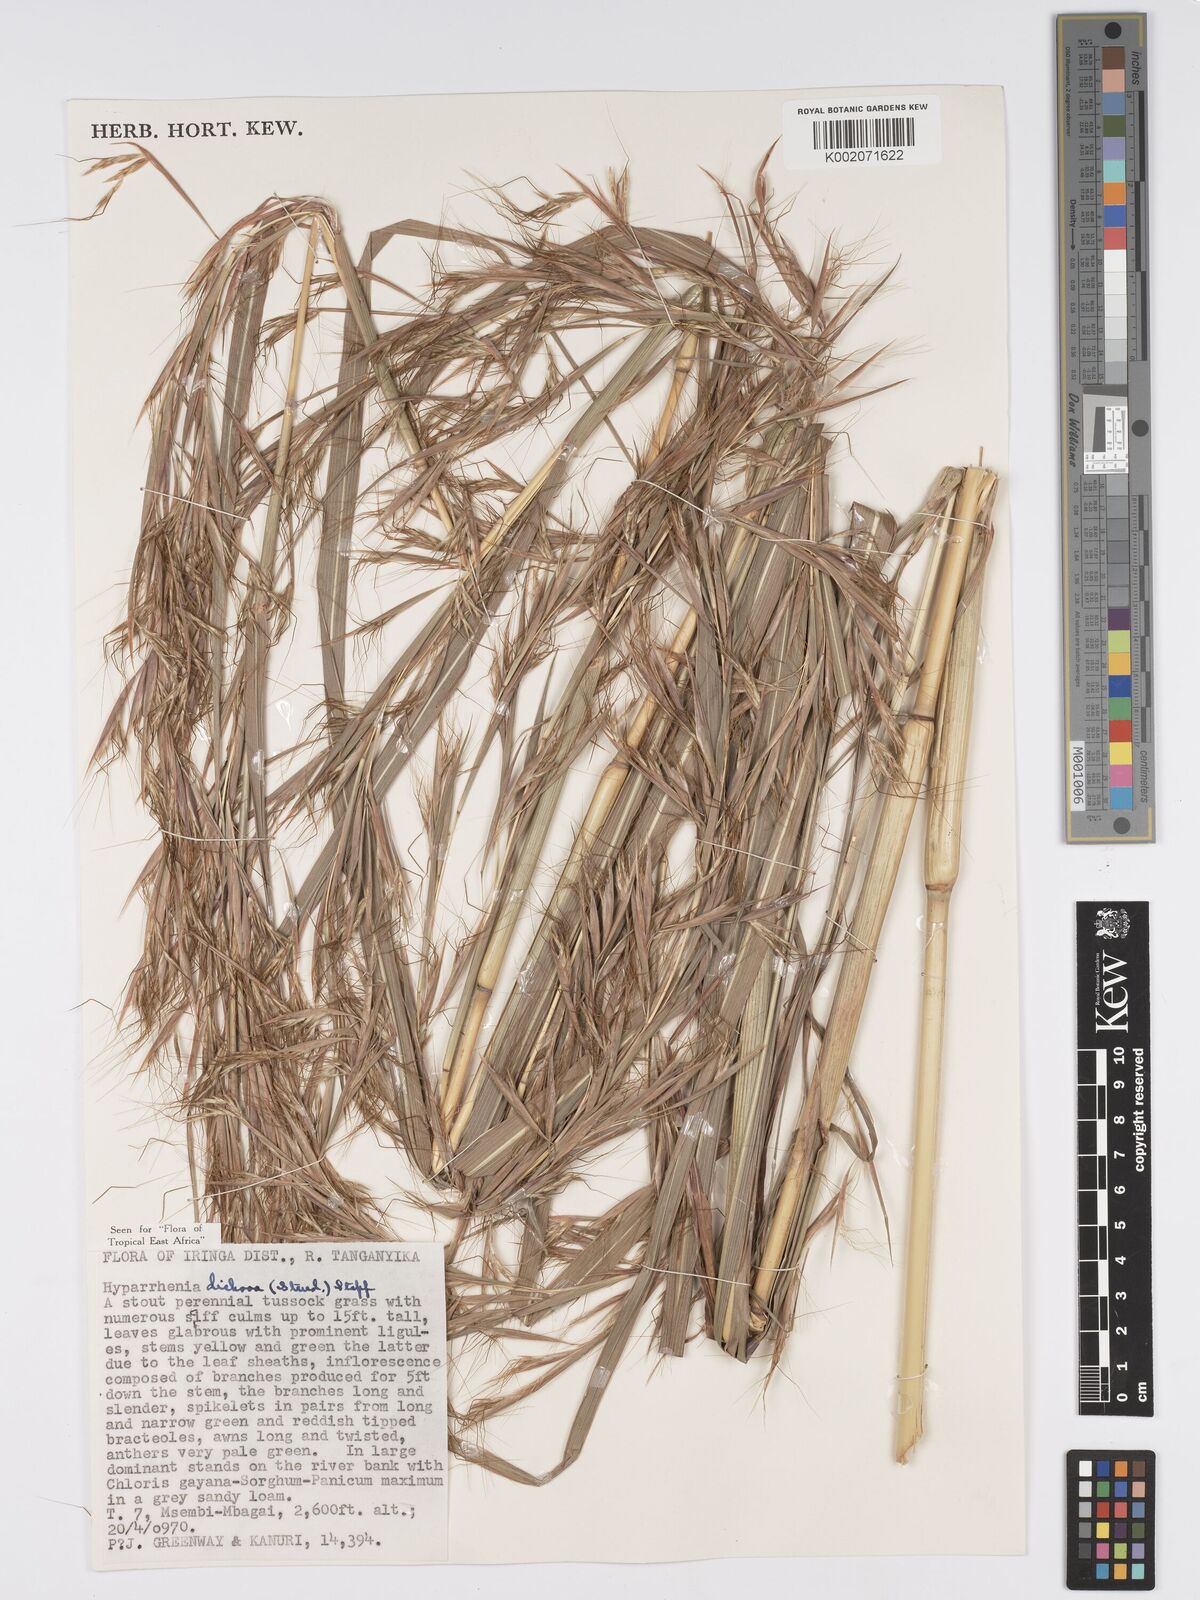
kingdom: Plantae
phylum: Tracheophyta
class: Liliopsida
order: Poales
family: Poaceae
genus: Hyparrhenia
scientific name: Hyparrhenia dichroa
